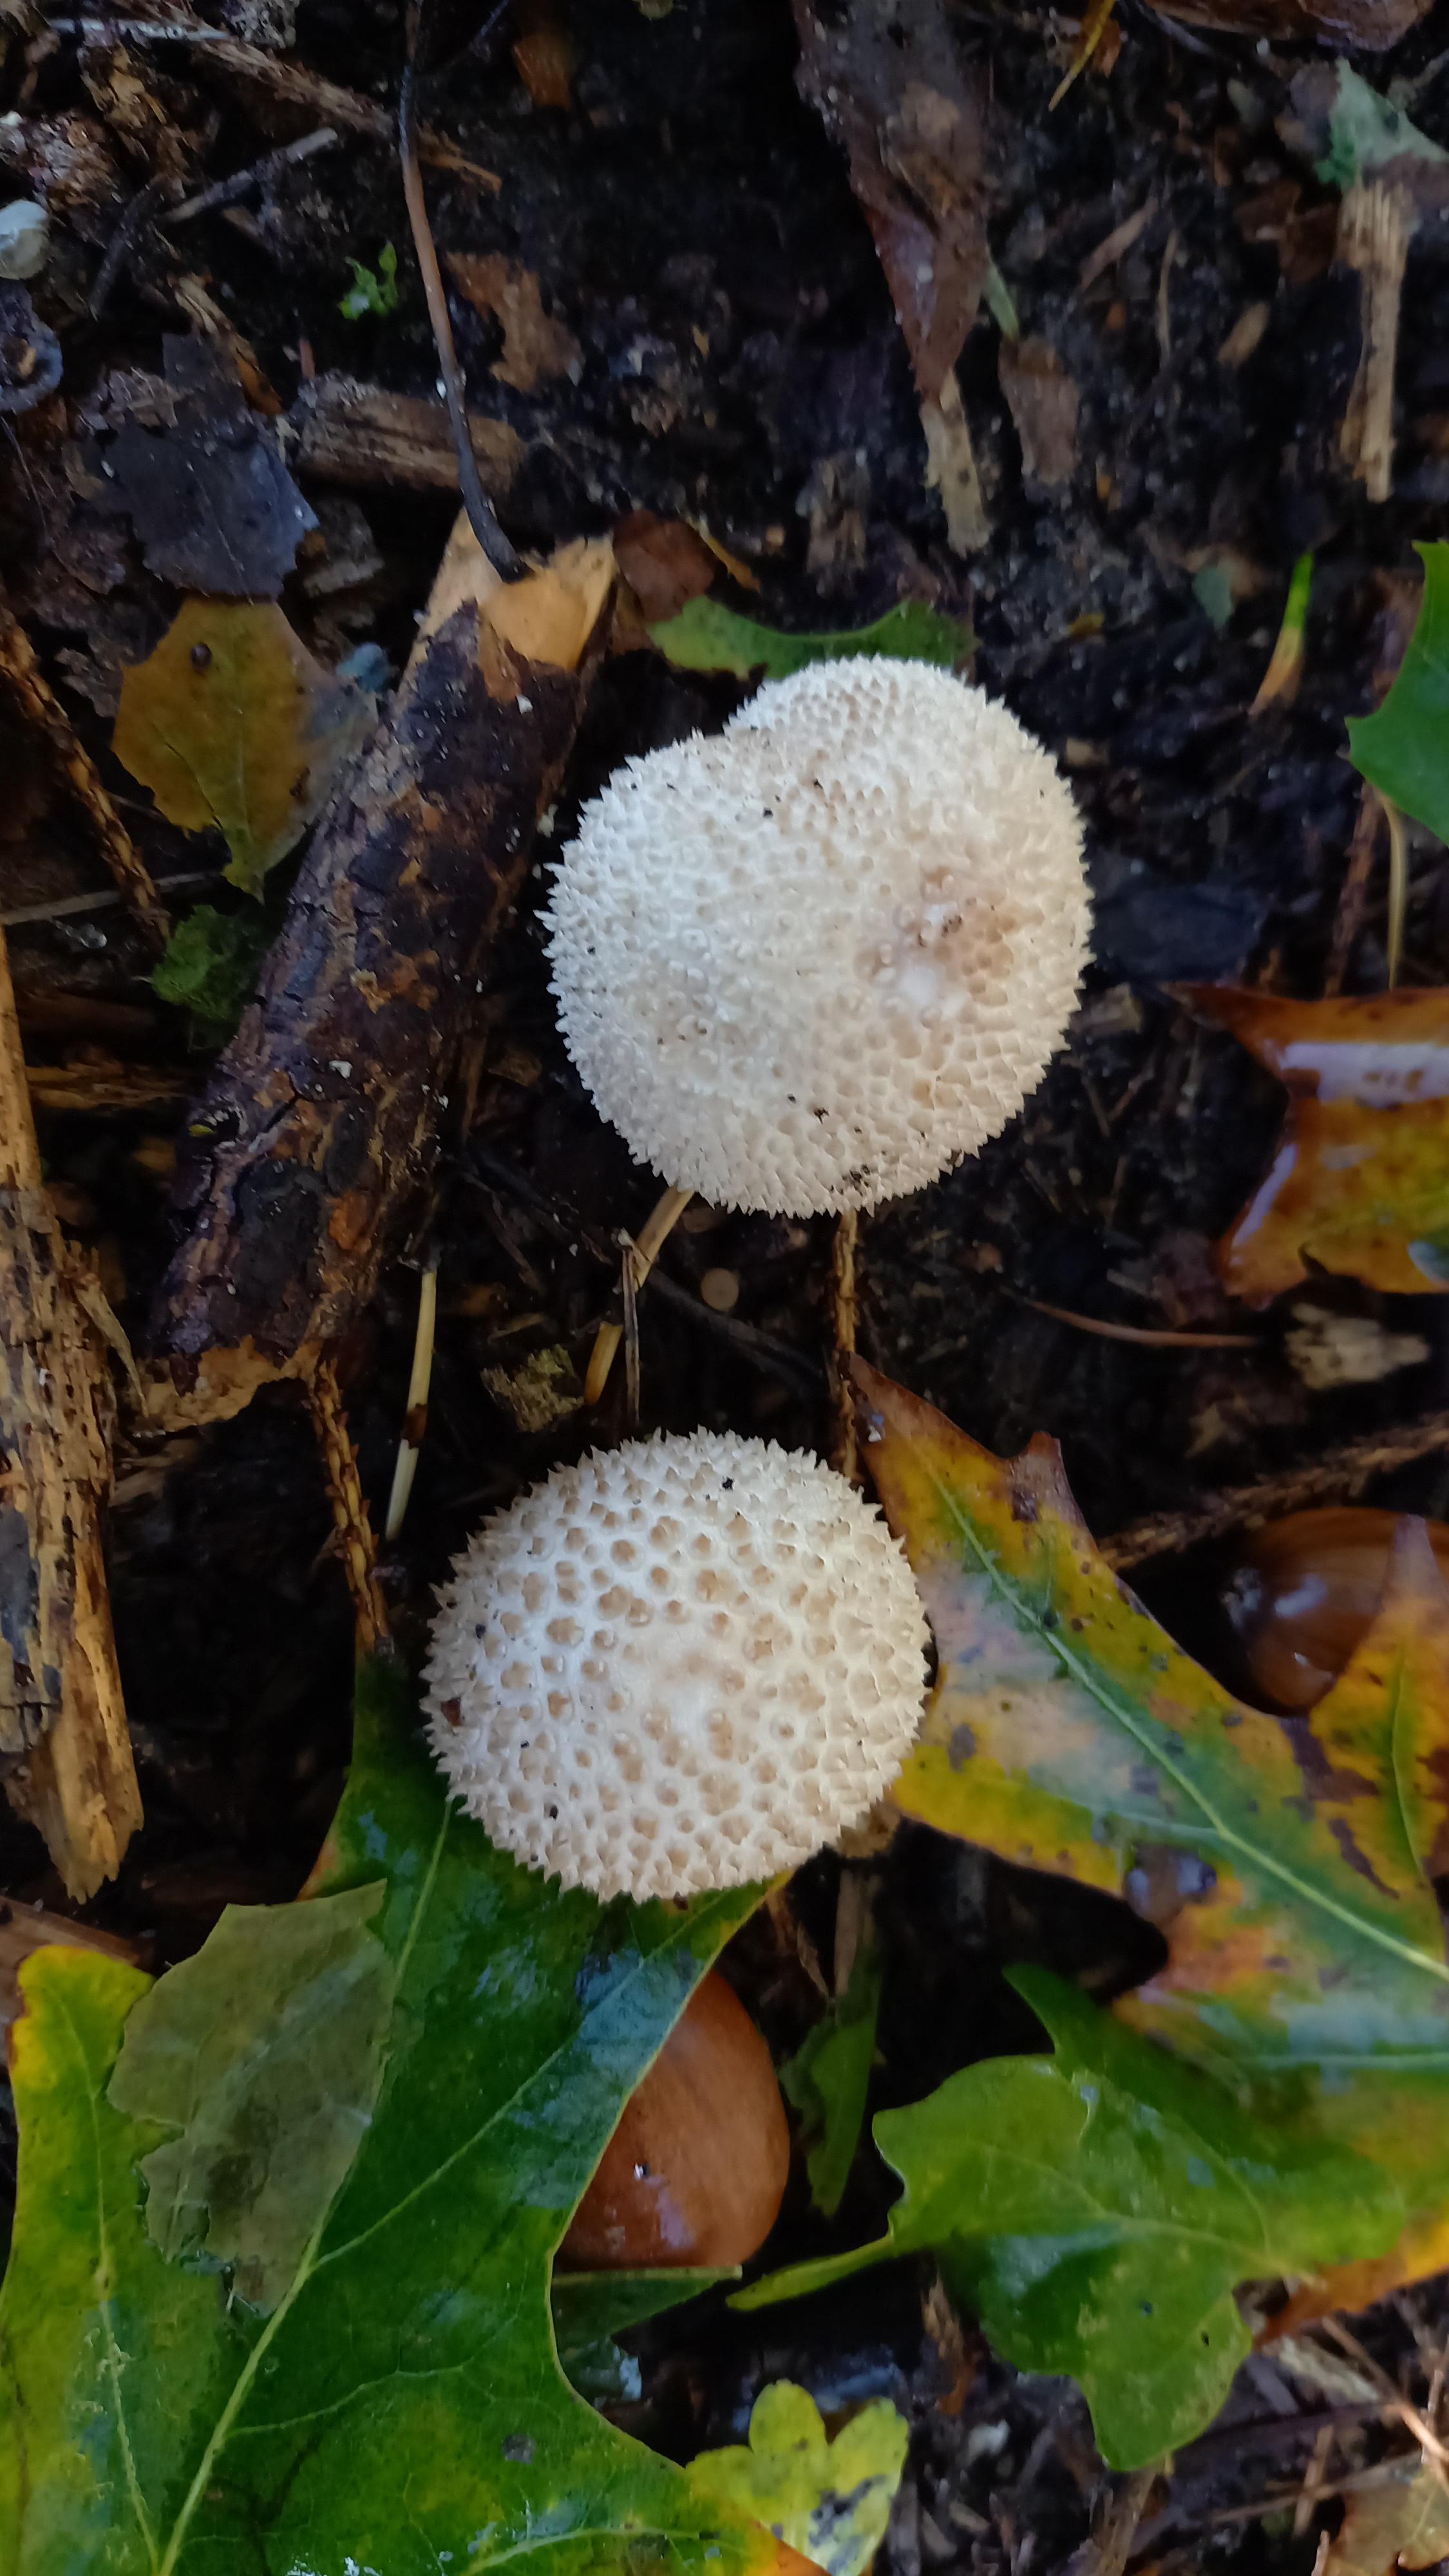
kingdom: Fungi
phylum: Basidiomycota
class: Agaricomycetes
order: Agaricales
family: Lycoperdaceae
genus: Lycoperdon
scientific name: Lycoperdon perlatum
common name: krystal-støvbold
